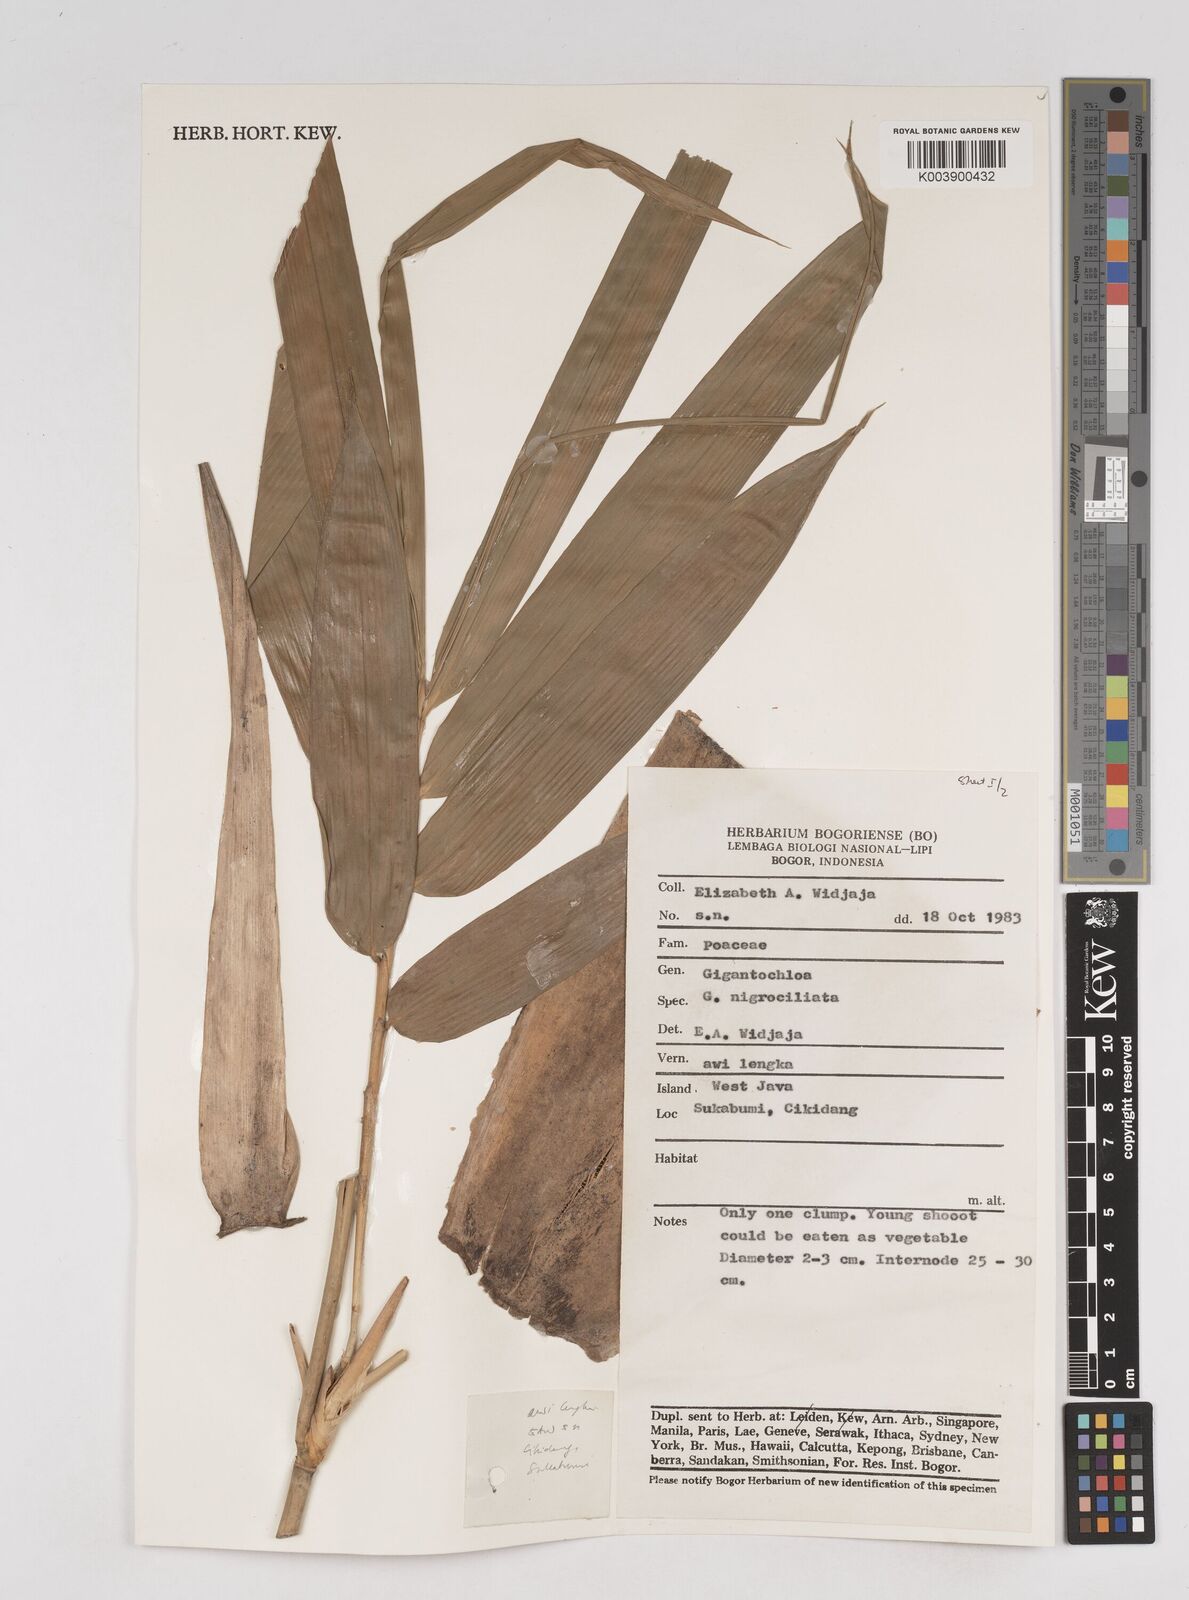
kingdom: Plantae
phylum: Tracheophyta
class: Liliopsida
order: Poales
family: Poaceae
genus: Gigantochloa
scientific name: Gigantochloa nigrociliata
